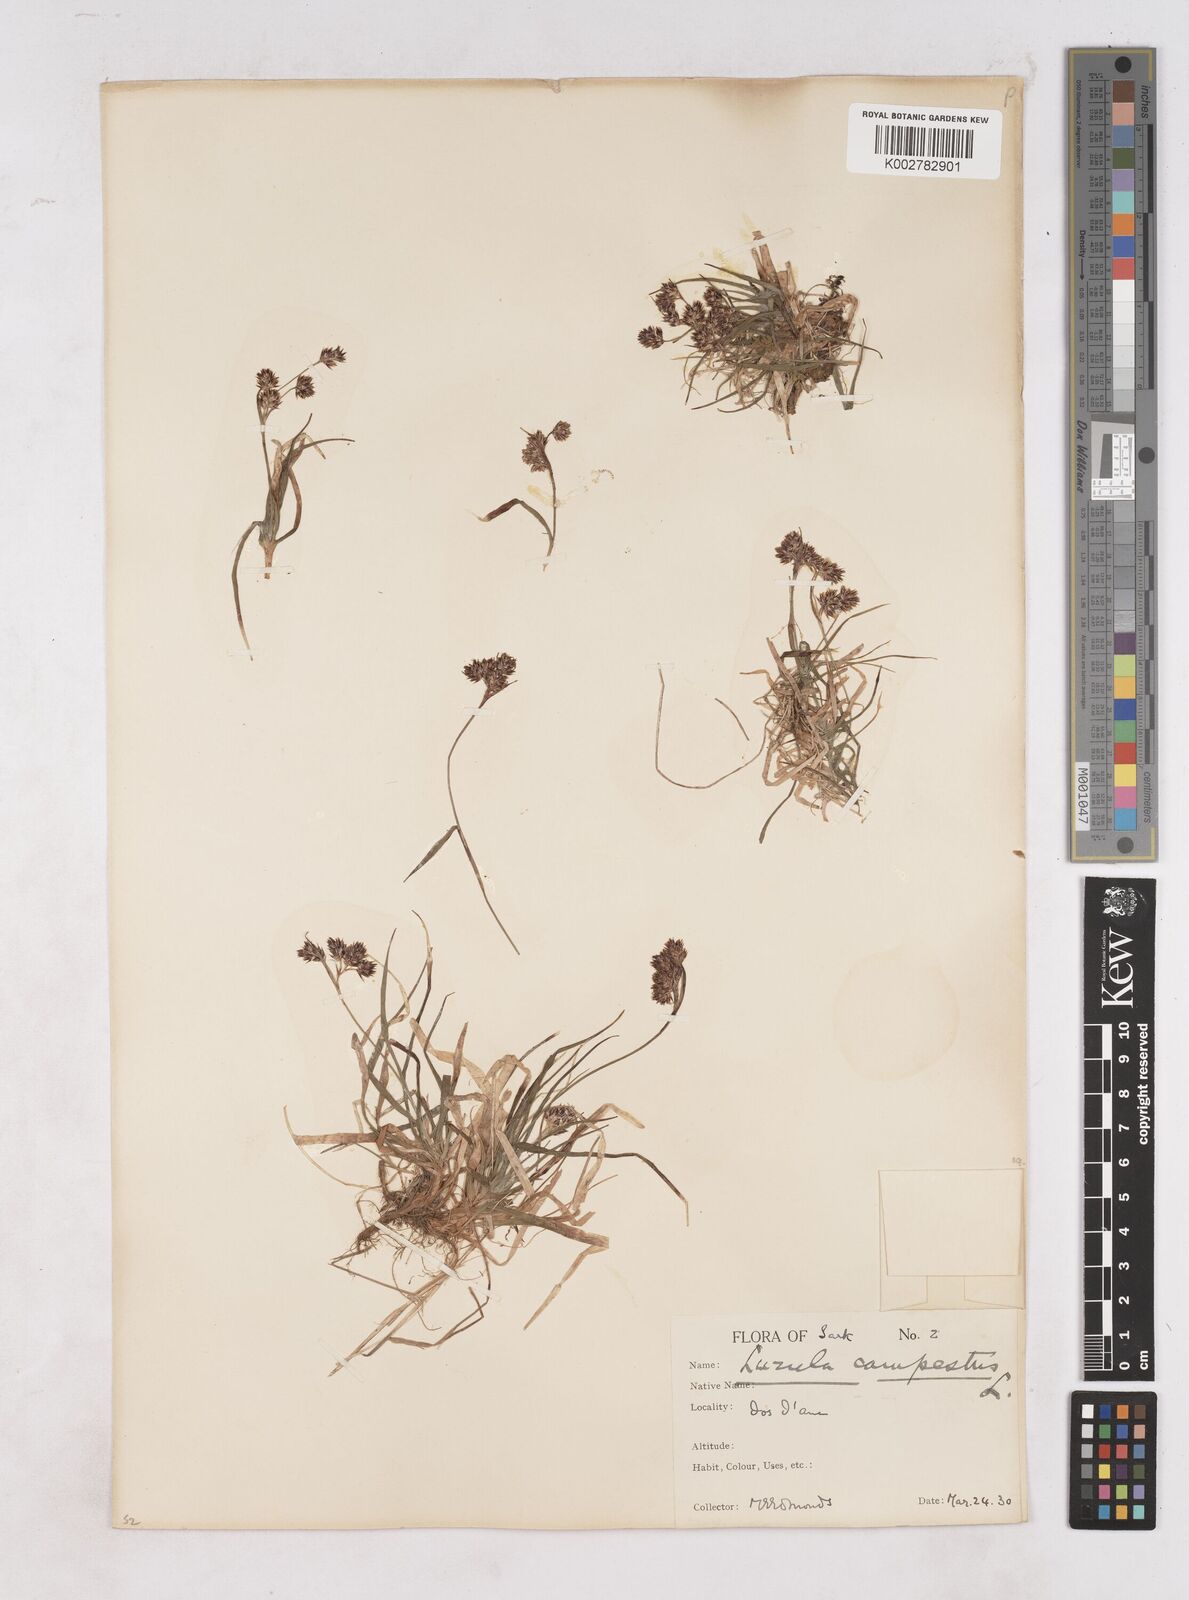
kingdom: Plantae
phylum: Tracheophyta
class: Liliopsida
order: Poales
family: Juncaceae
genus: Luzula
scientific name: Luzula campestris
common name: Field wood-rush
